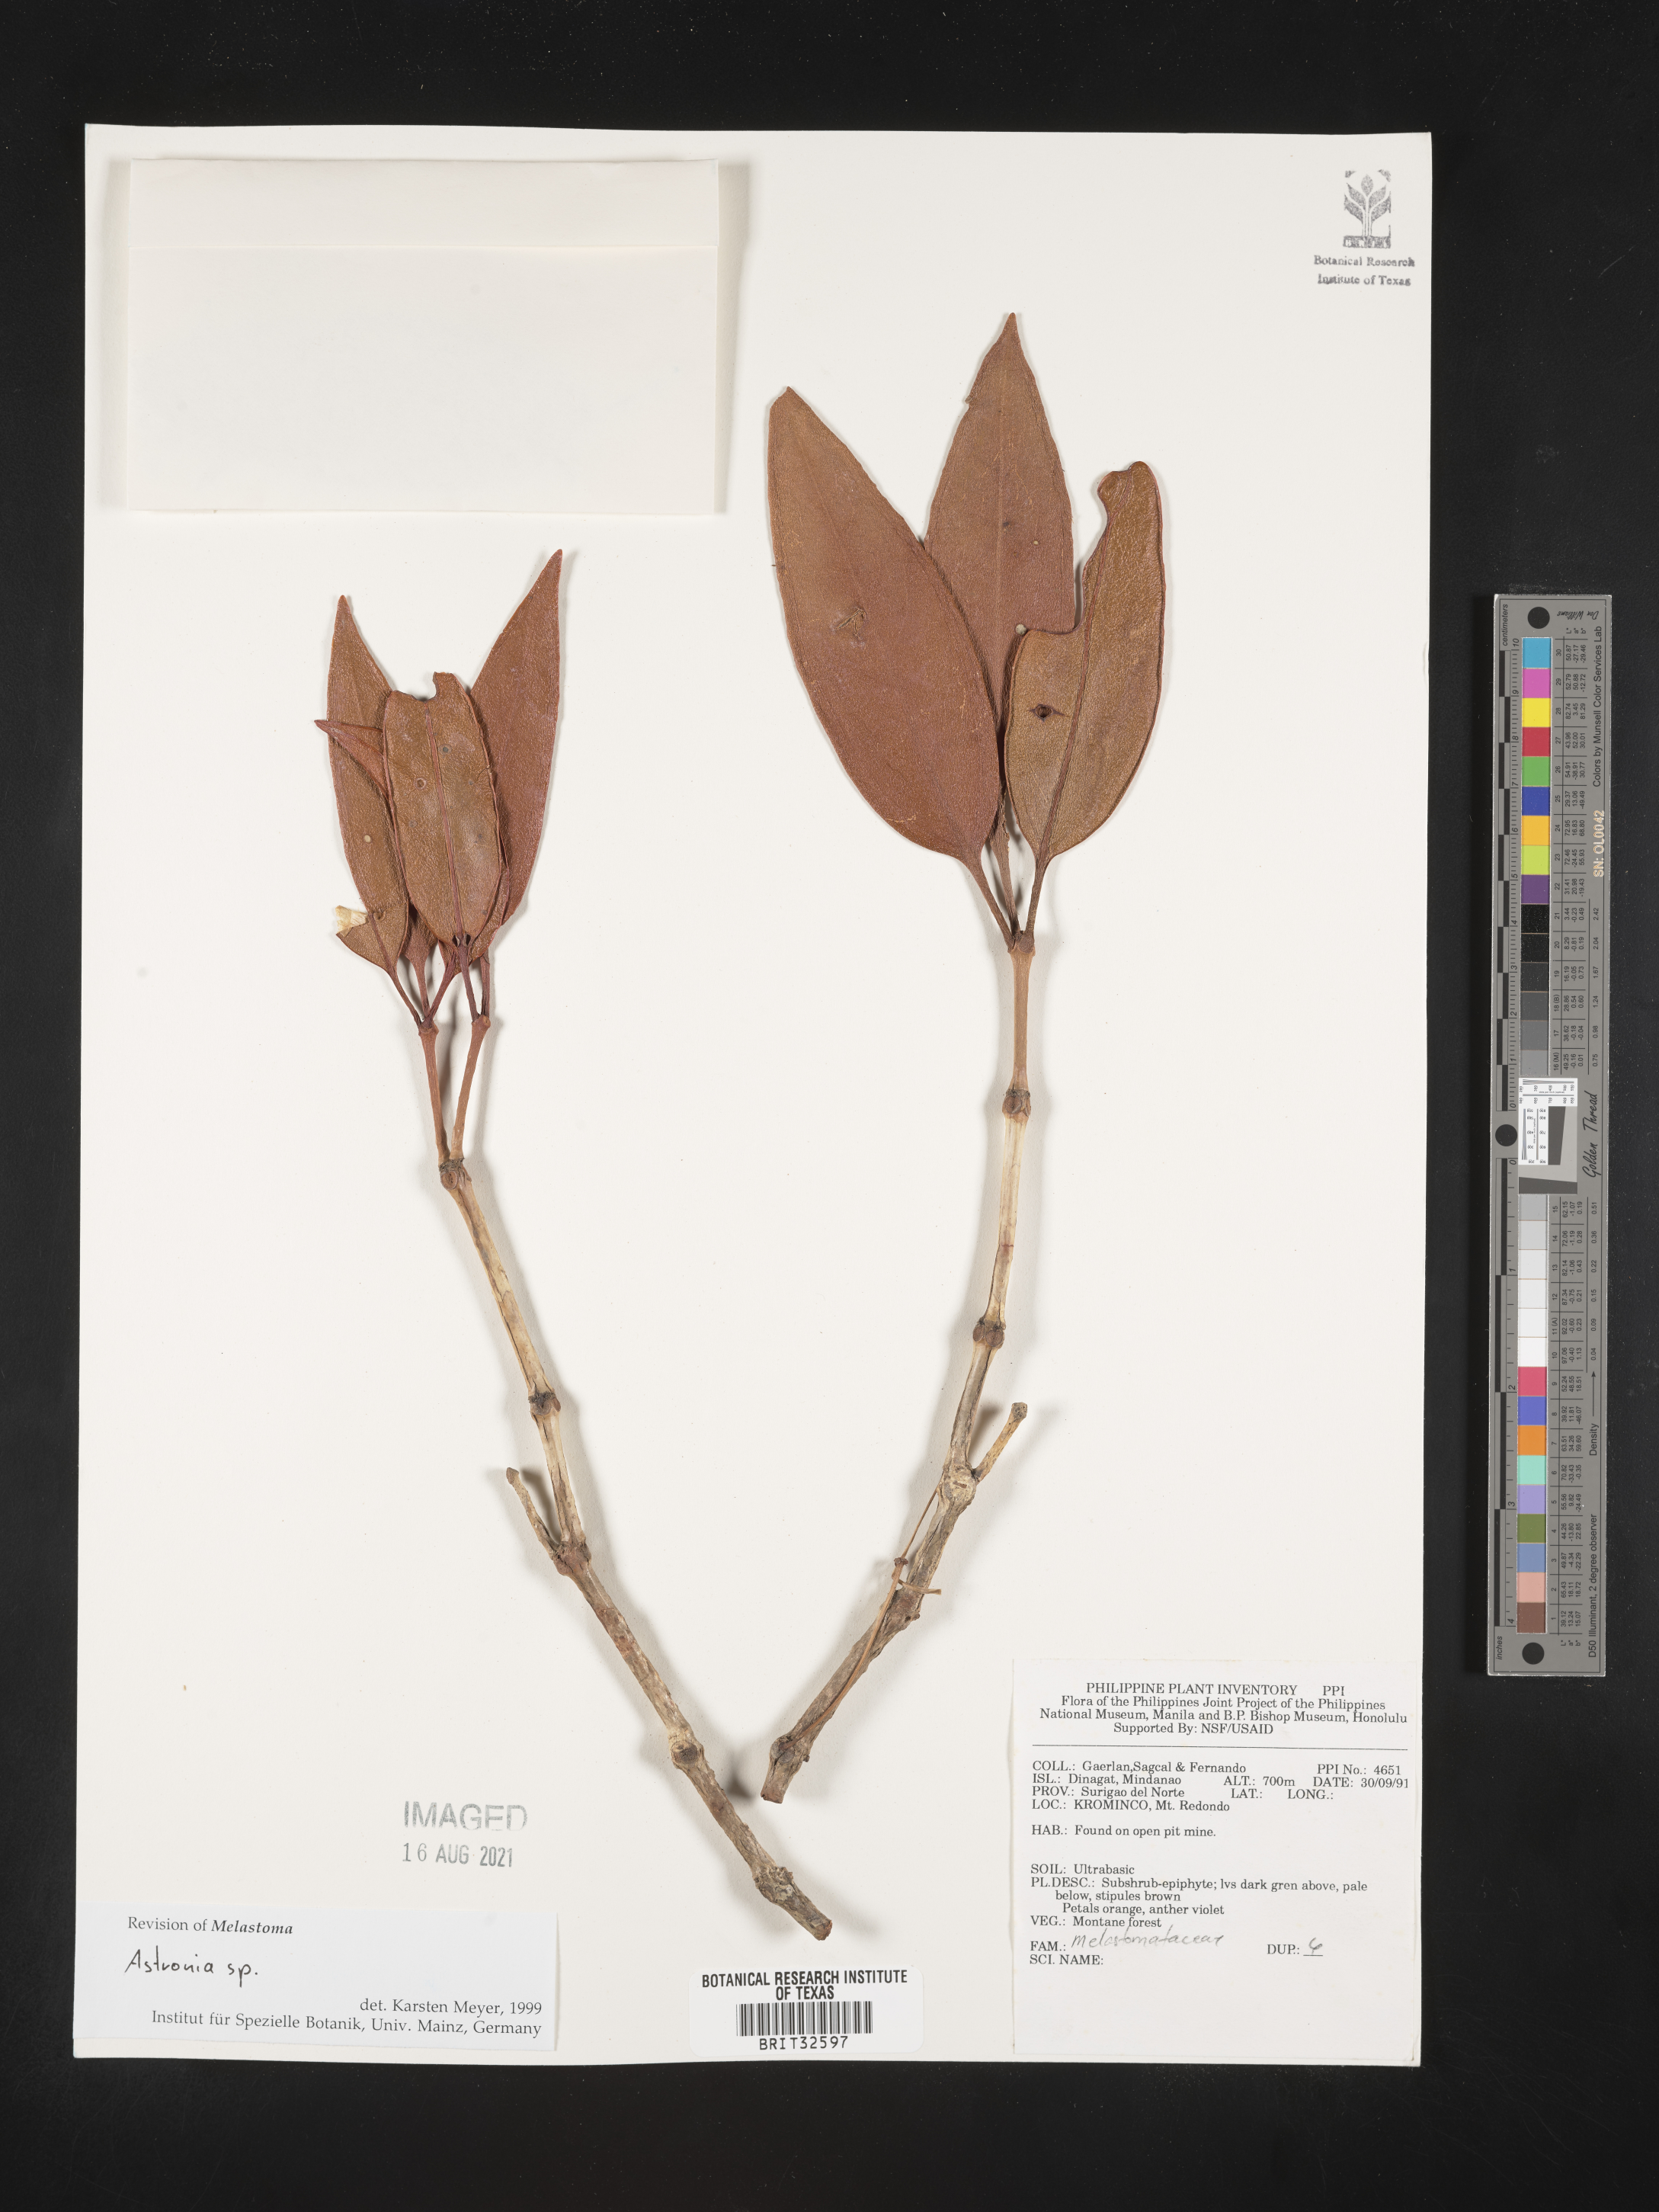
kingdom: Plantae
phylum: Tracheophyta
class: Magnoliopsida
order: Myrtales
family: Melastomataceae
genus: Astronia
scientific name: Astronia
